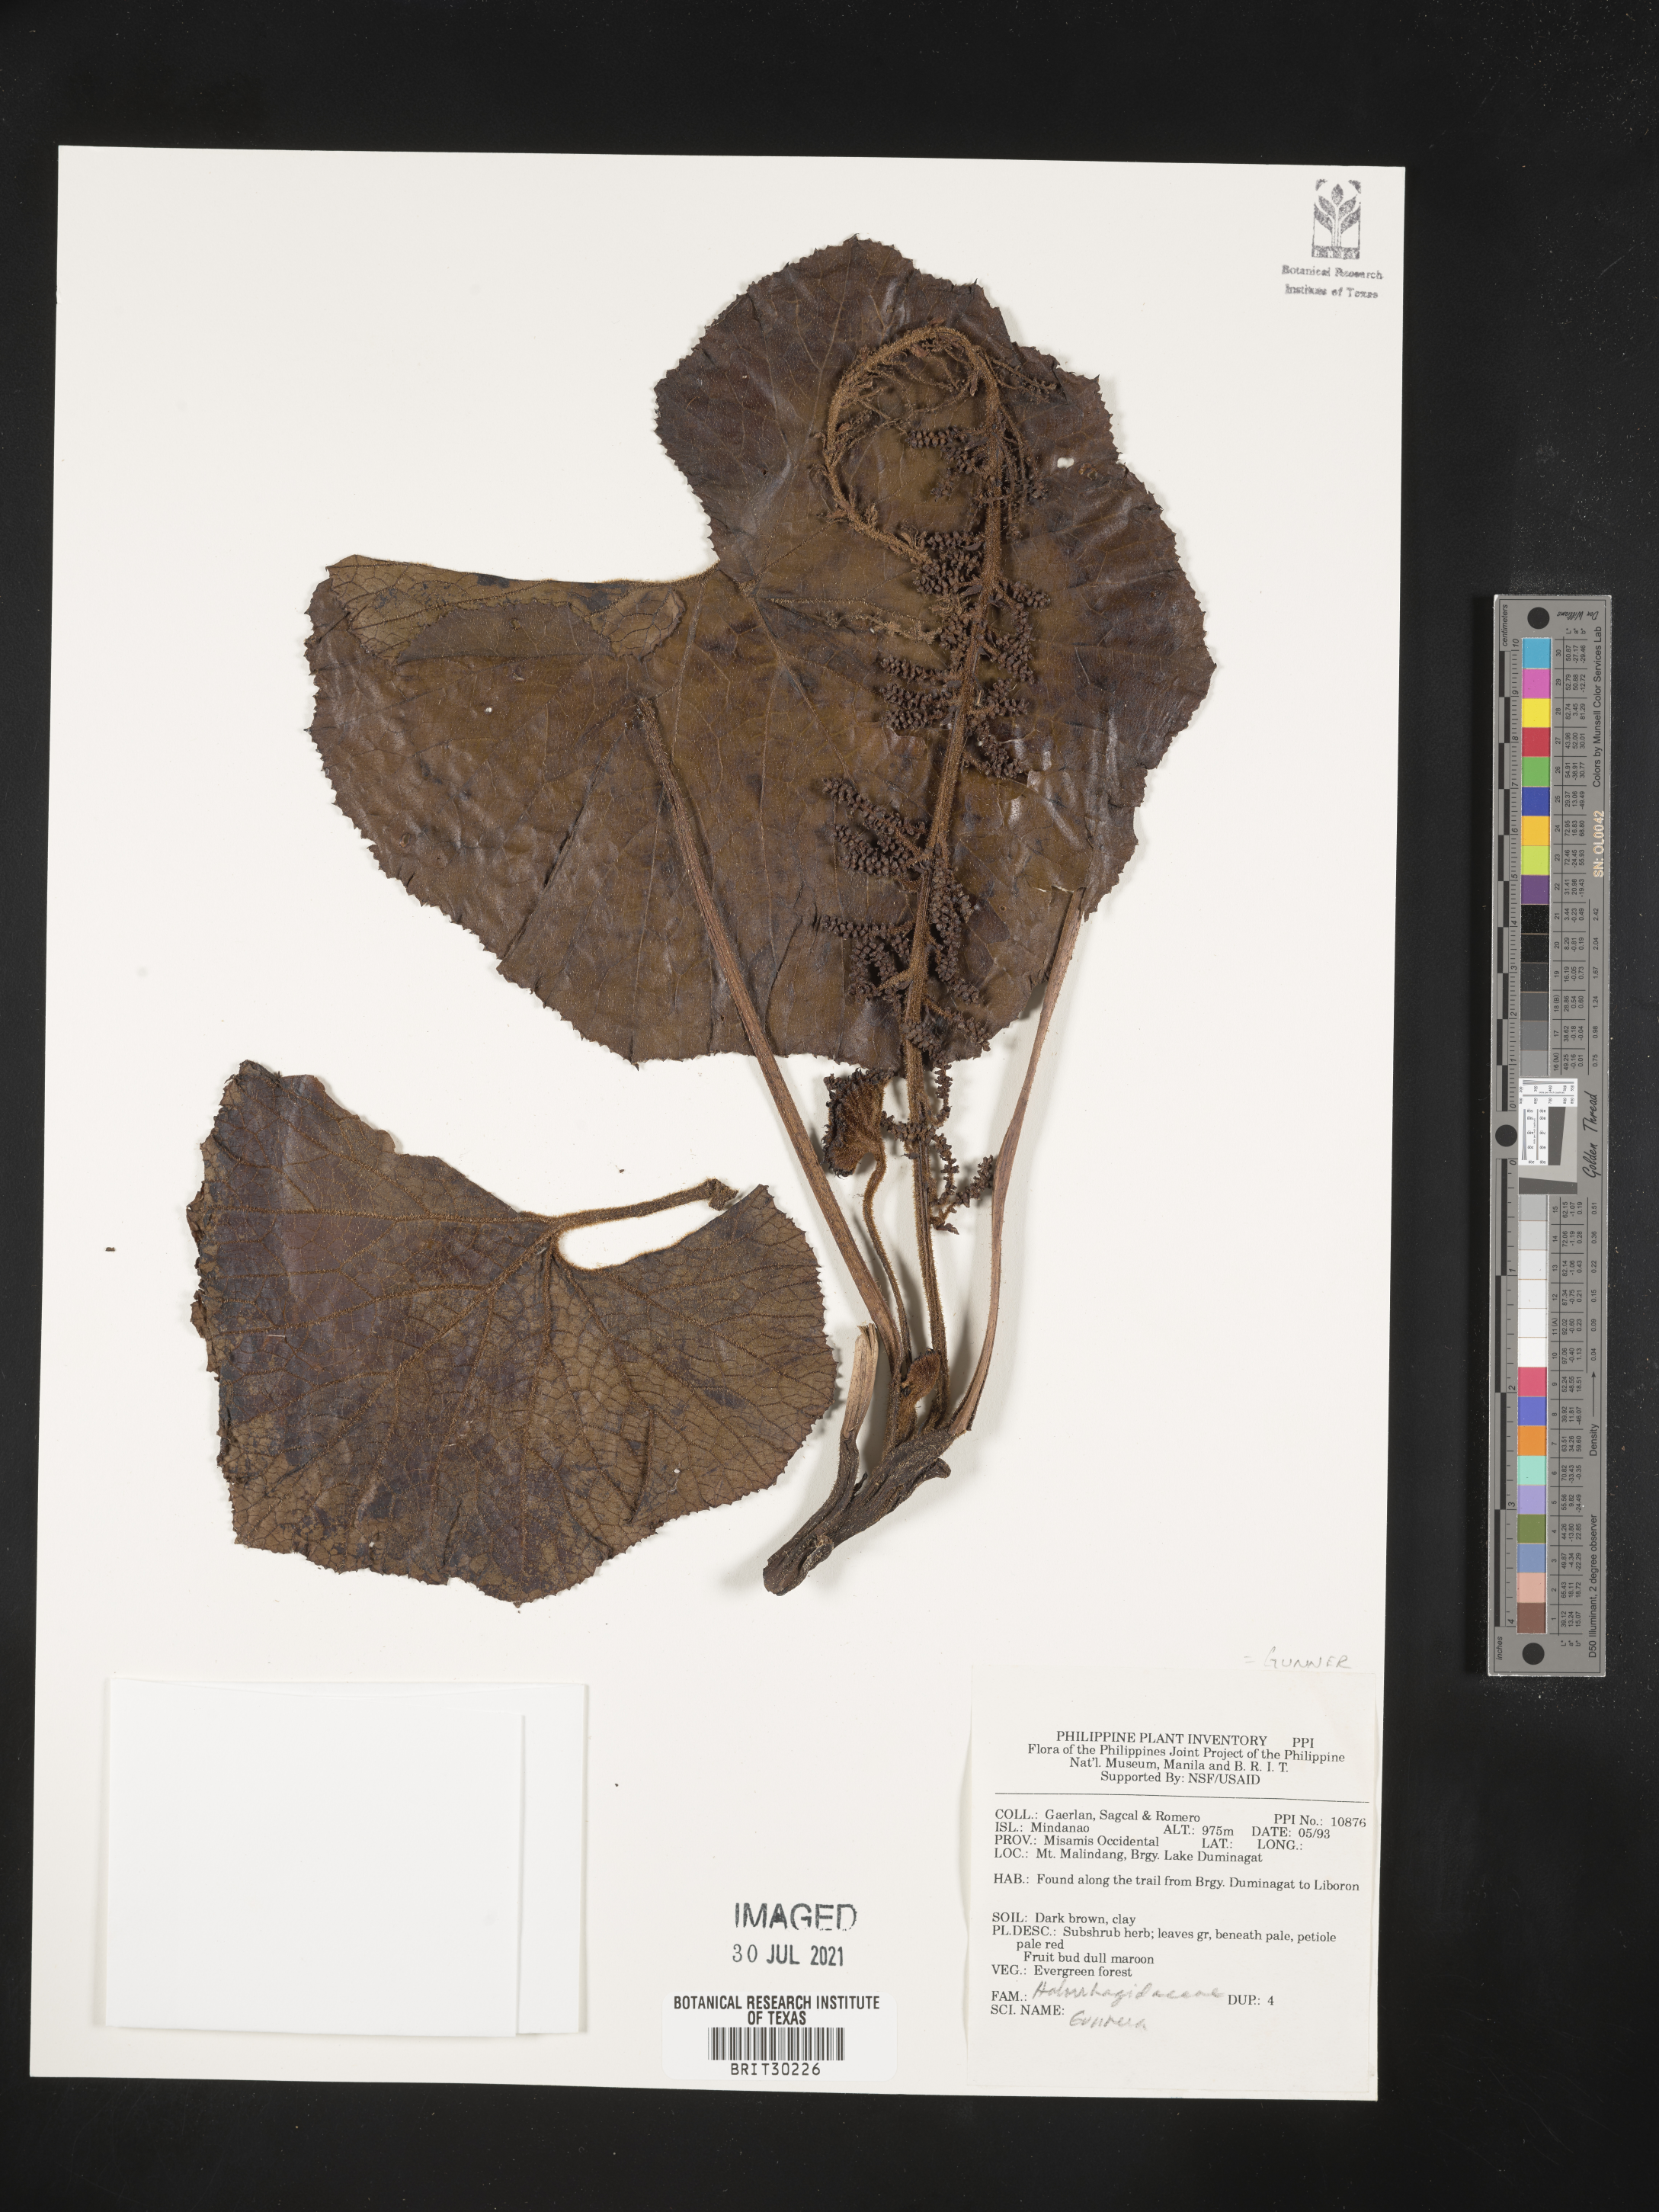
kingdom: Plantae
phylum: Tracheophyta
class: Magnoliopsida
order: Gunnerales
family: Gunneraceae
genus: Gunnera
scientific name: Gunnera
